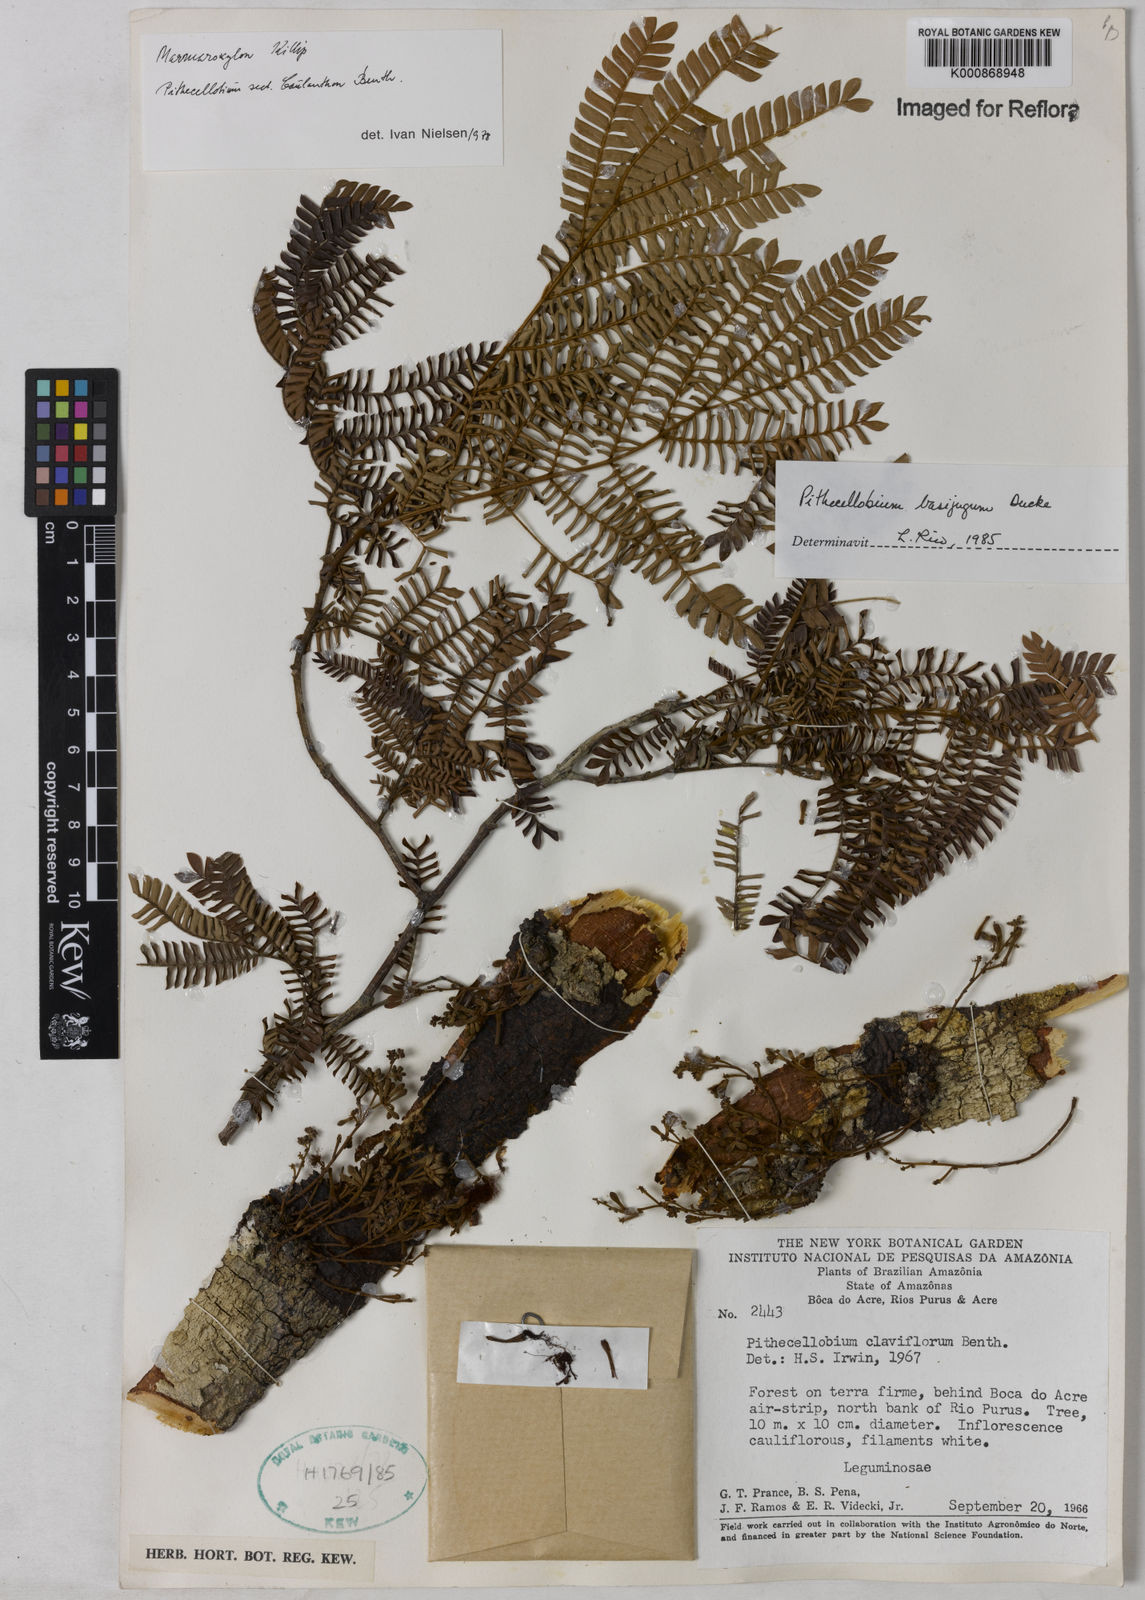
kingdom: Plantae
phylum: Tracheophyta
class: Magnoliopsida
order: Fabales
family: Fabaceae
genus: Zygia
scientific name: Zygia basijuga
